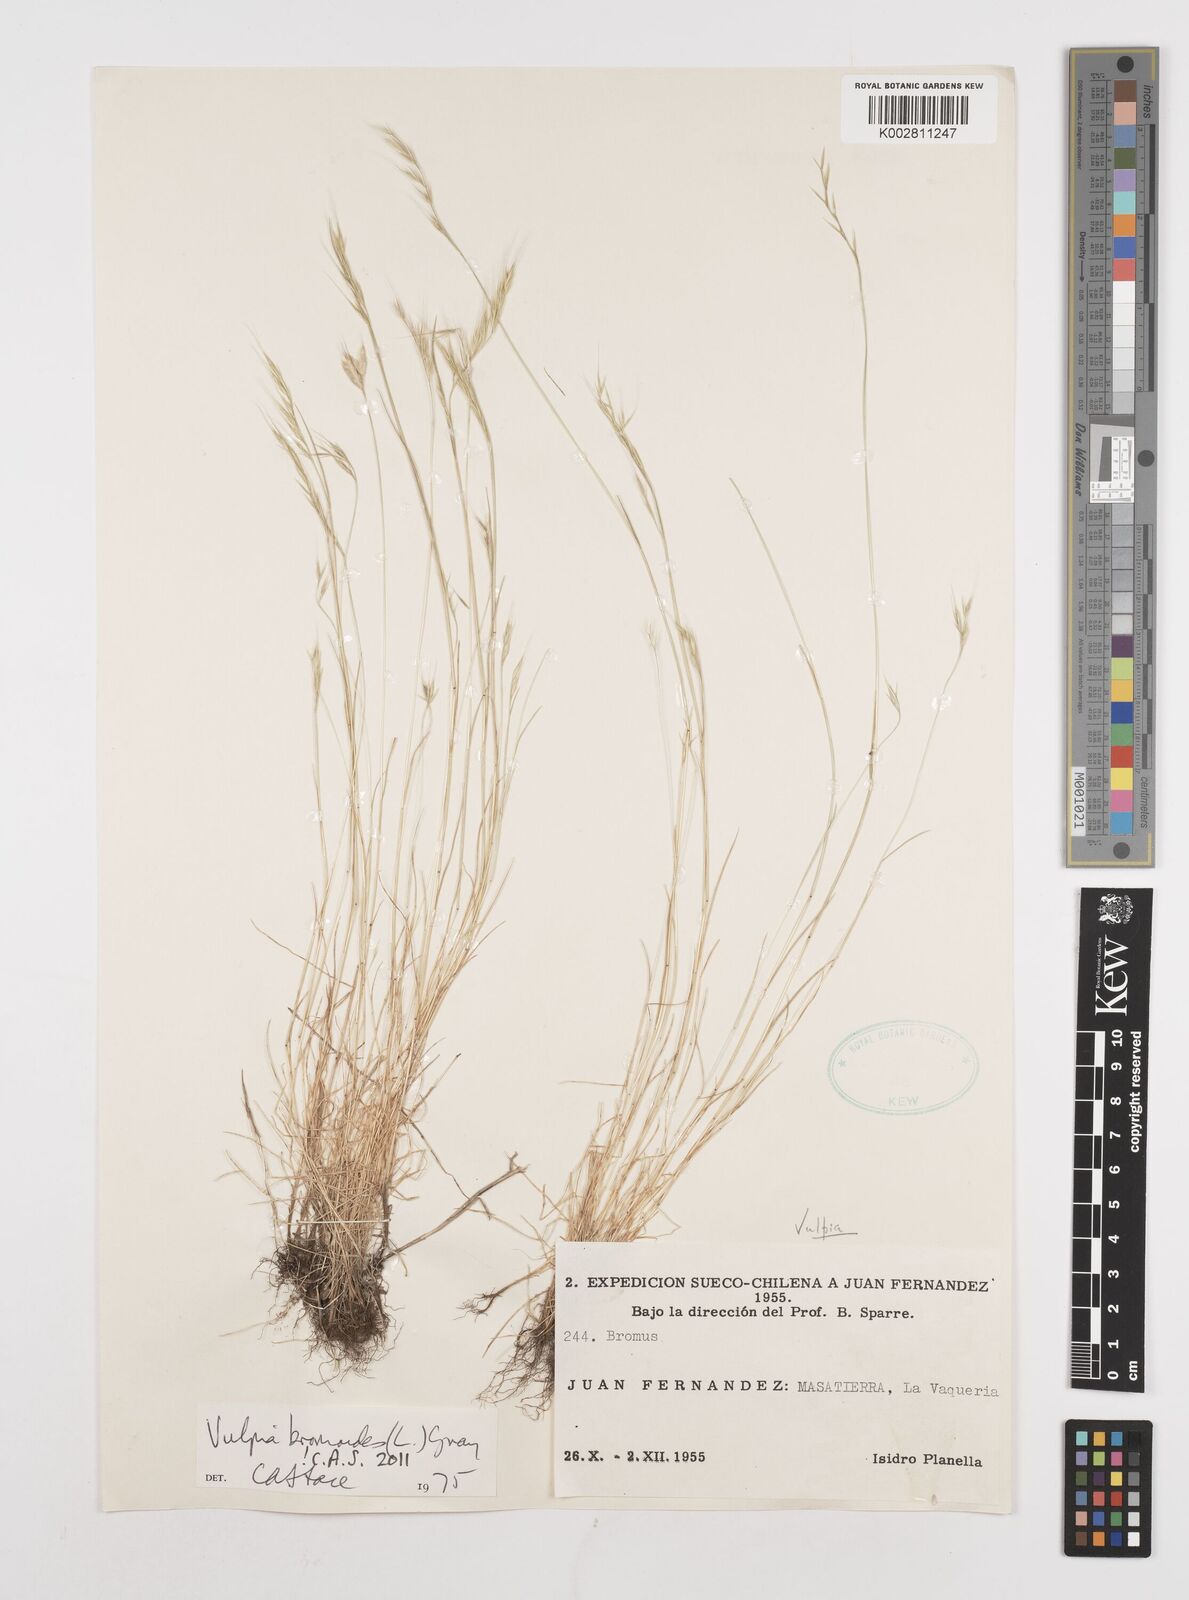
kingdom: Plantae
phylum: Tracheophyta
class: Liliopsida
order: Poales
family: Poaceae
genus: Festuca
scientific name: Festuca bromoides
